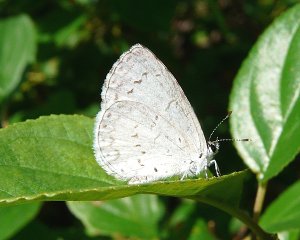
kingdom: Animalia
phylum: Arthropoda
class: Insecta
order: Lepidoptera
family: Lycaenidae
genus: Celastrina
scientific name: Celastrina
